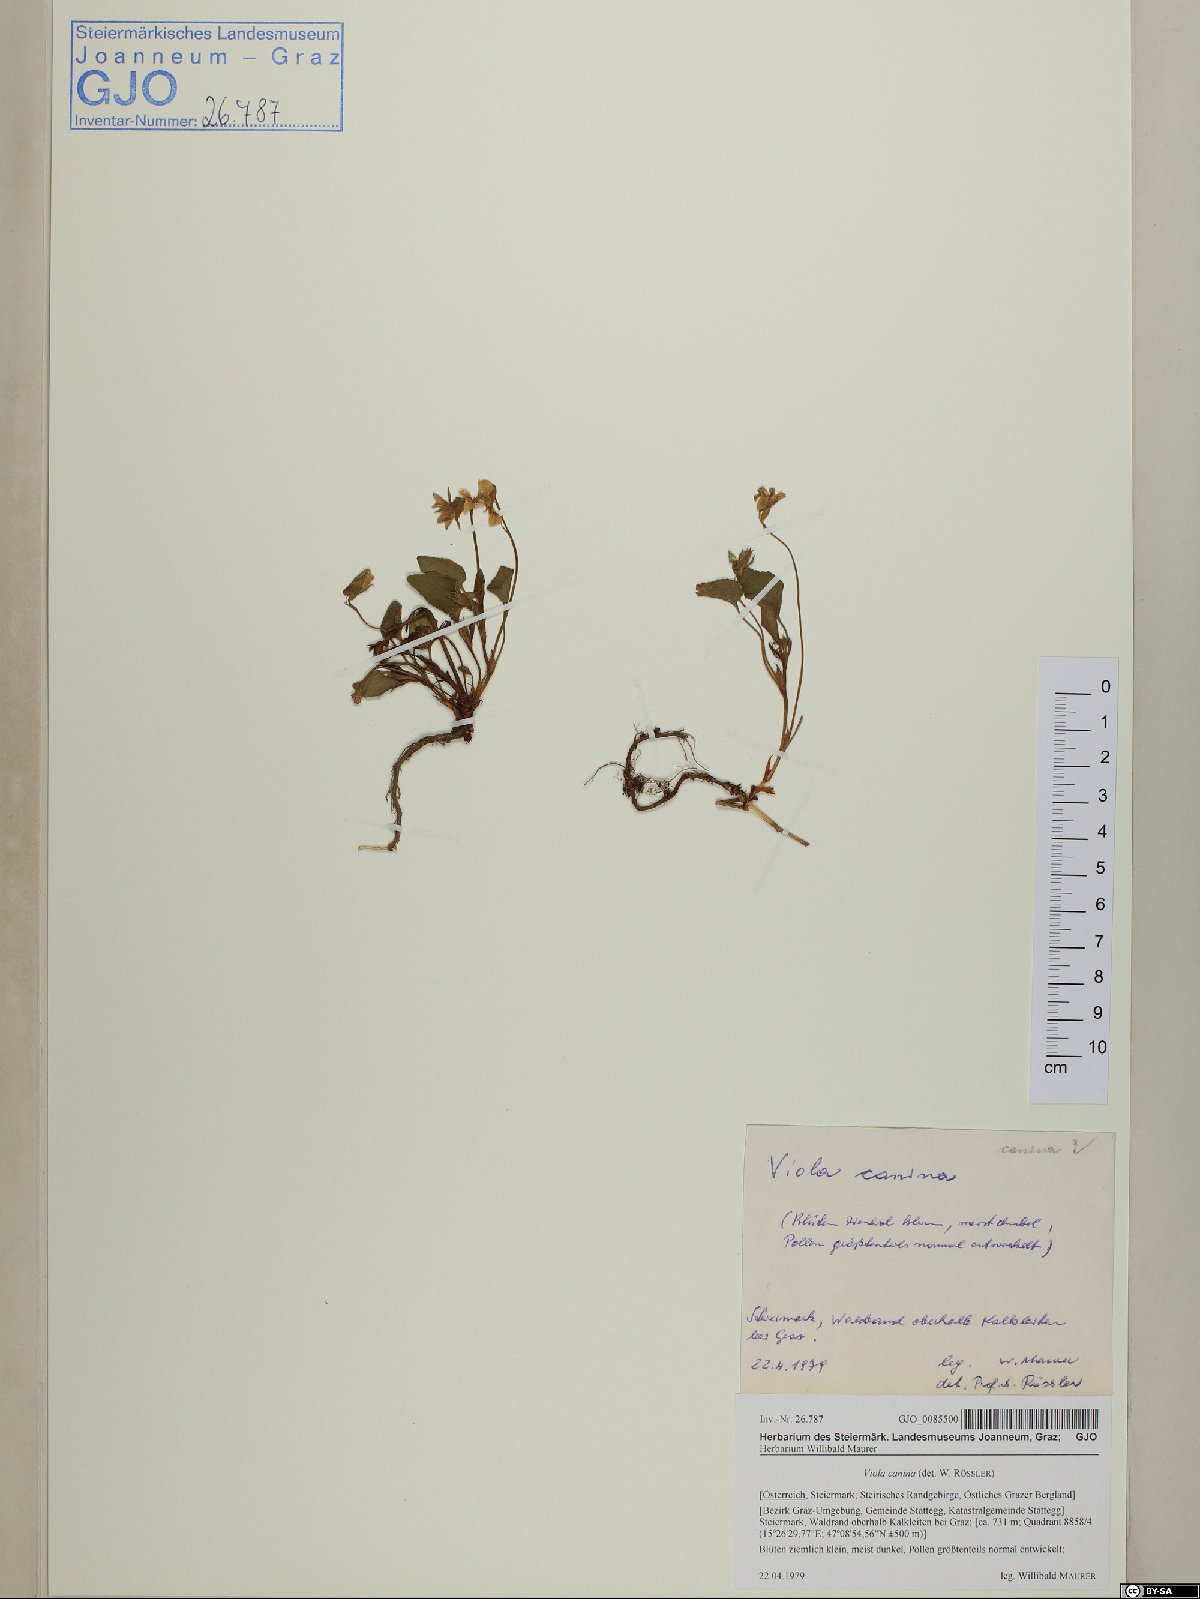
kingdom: Plantae
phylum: Tracheophyta
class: Magnoliopsida
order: Malpighiales
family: Violaceae
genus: Viola
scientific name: Viola canina
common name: Heath dog-violet
